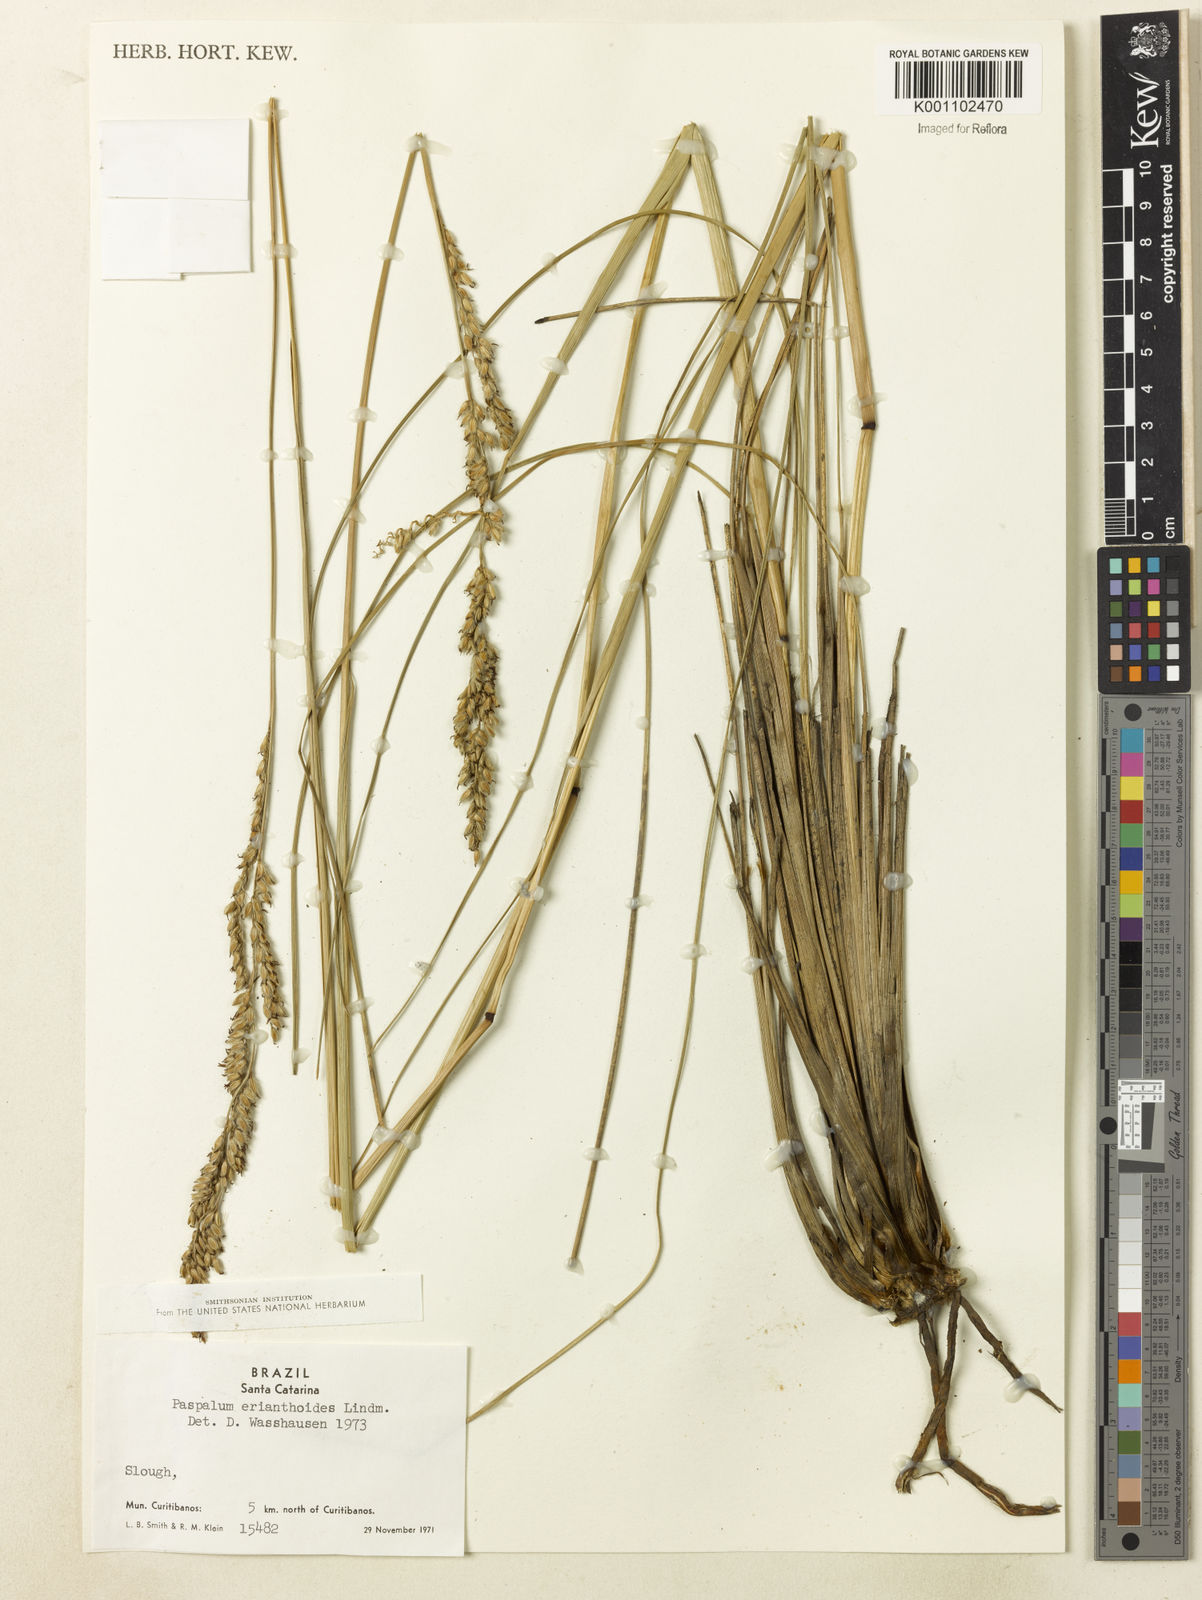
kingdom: Plantae
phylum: Tracheophyta
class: Liliopsida
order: Poales
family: Poaceae
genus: Paspalum
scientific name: Paspalum erianthoides
